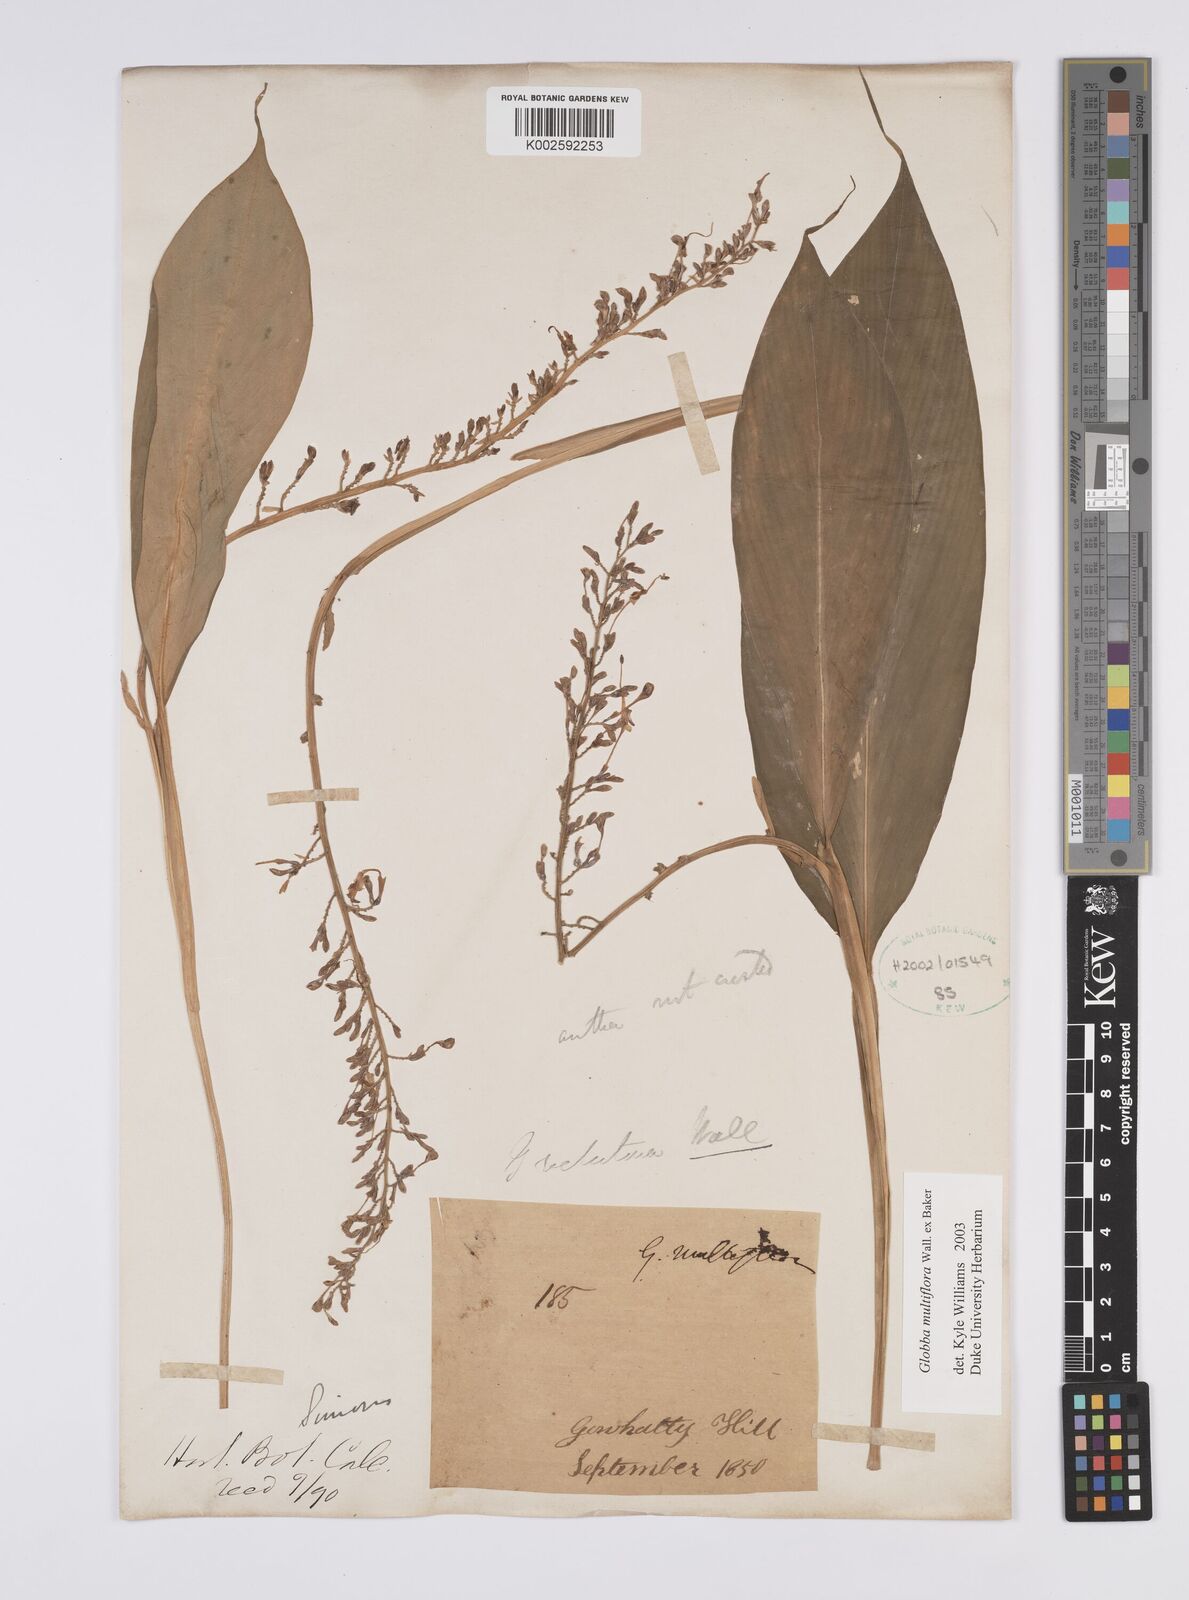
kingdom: Plantae
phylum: Tracheophyta
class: Liliopsida
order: Zingiberales
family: Zingiberaceae
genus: Globba
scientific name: Globba multiflora
